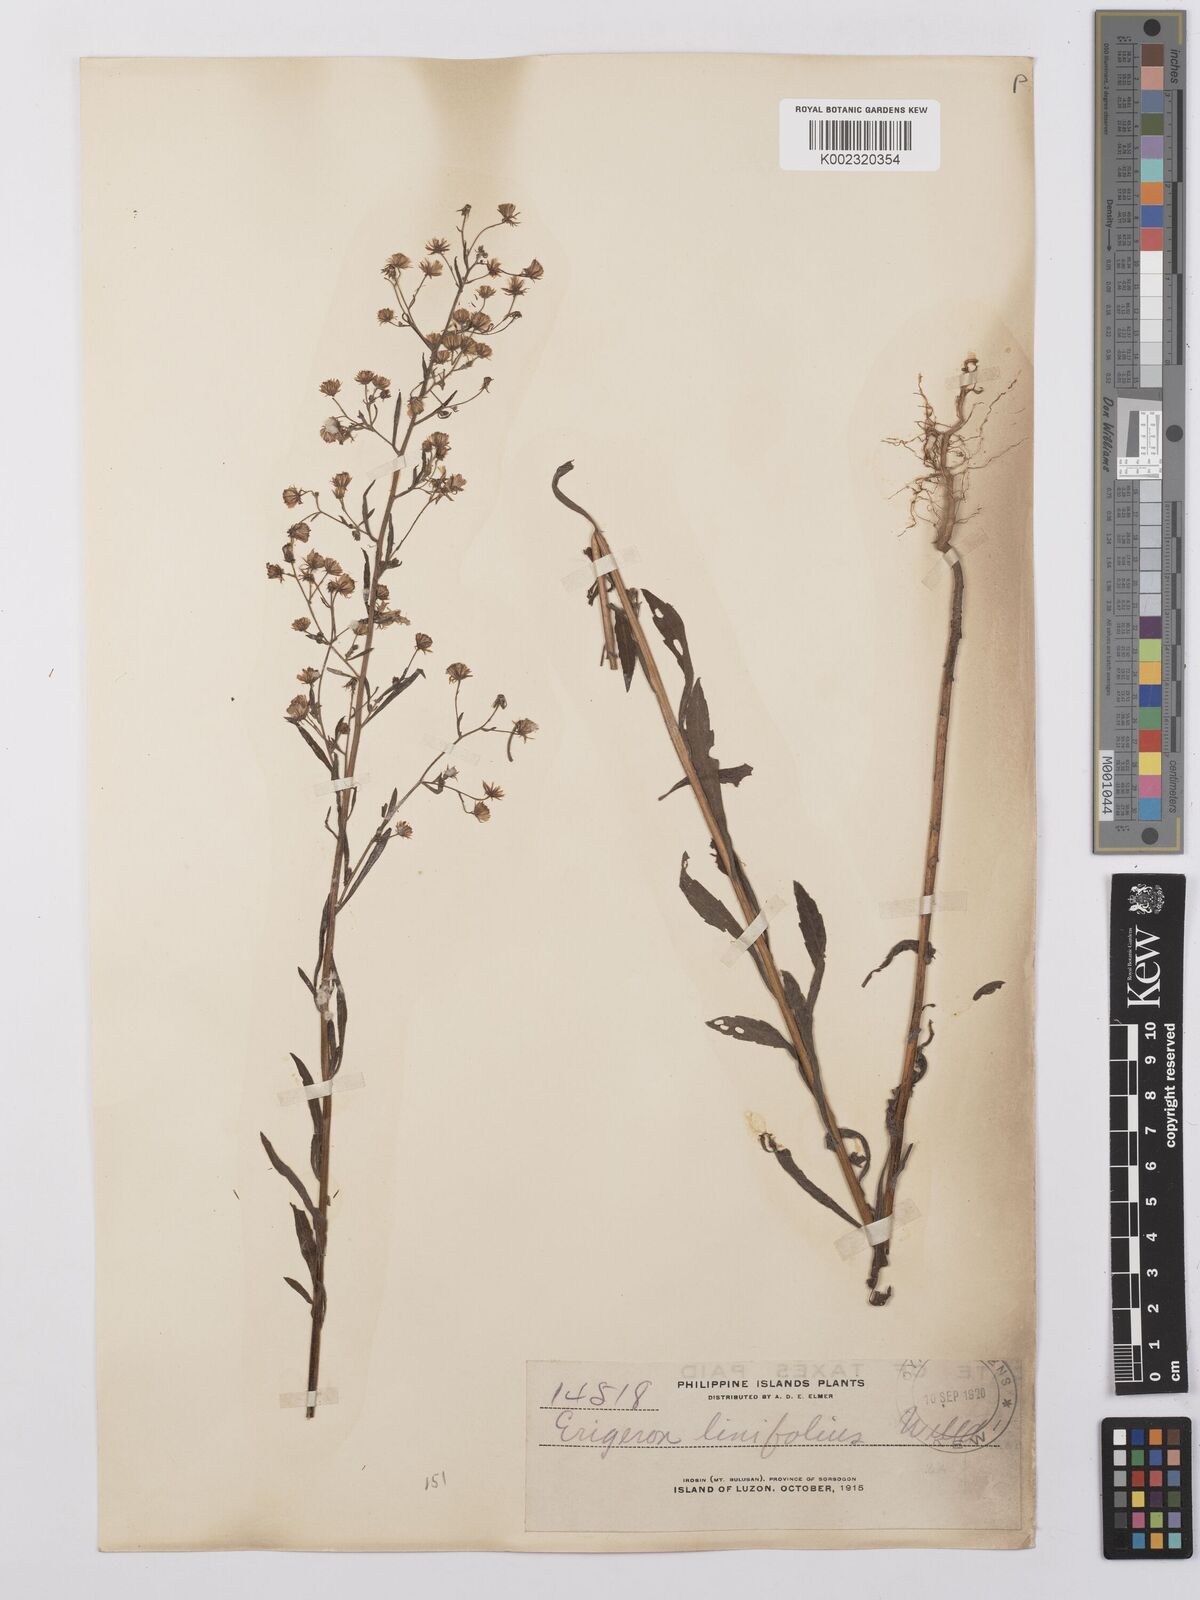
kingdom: Plantae
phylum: Tracheophyta
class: Magnoliopsida
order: Asterales
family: Asteraceae
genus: Erigeron
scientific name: Erigeron sumatrensis
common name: Daisy
